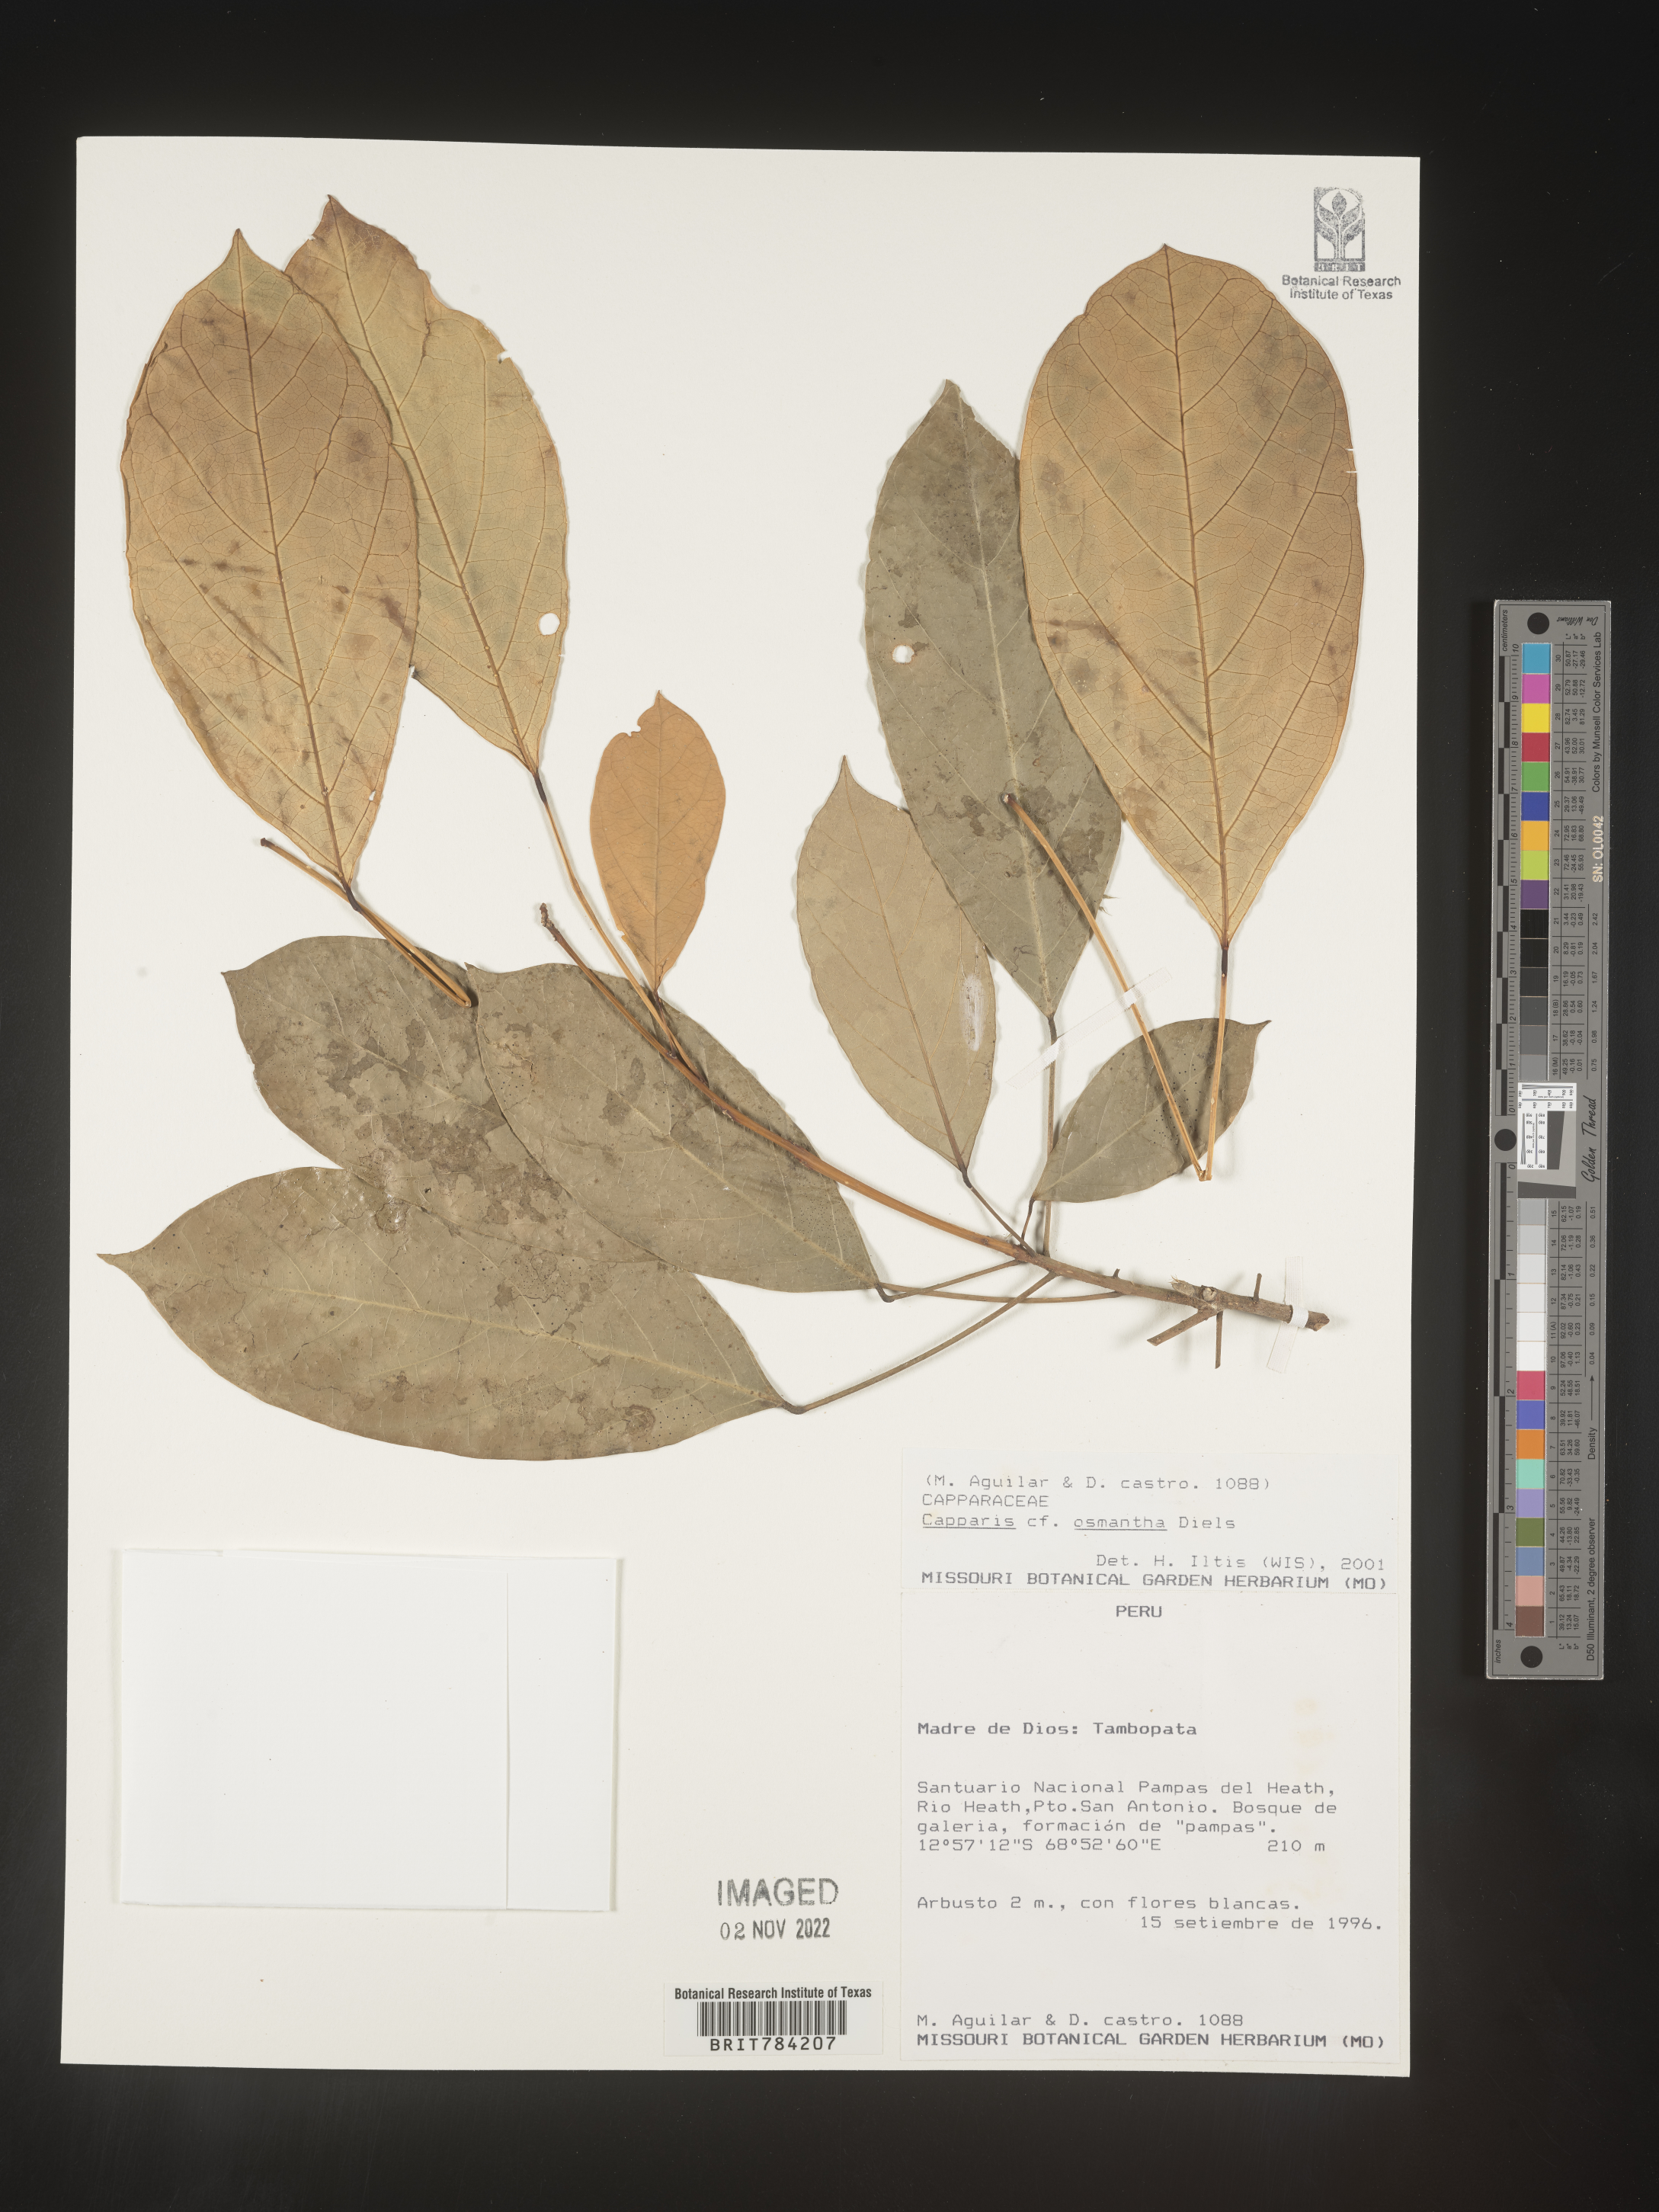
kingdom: Plantae
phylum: Tracheophyta
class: Magnoliopsida
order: Brassicales
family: Capparaceae
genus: Capparis
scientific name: Capparis
